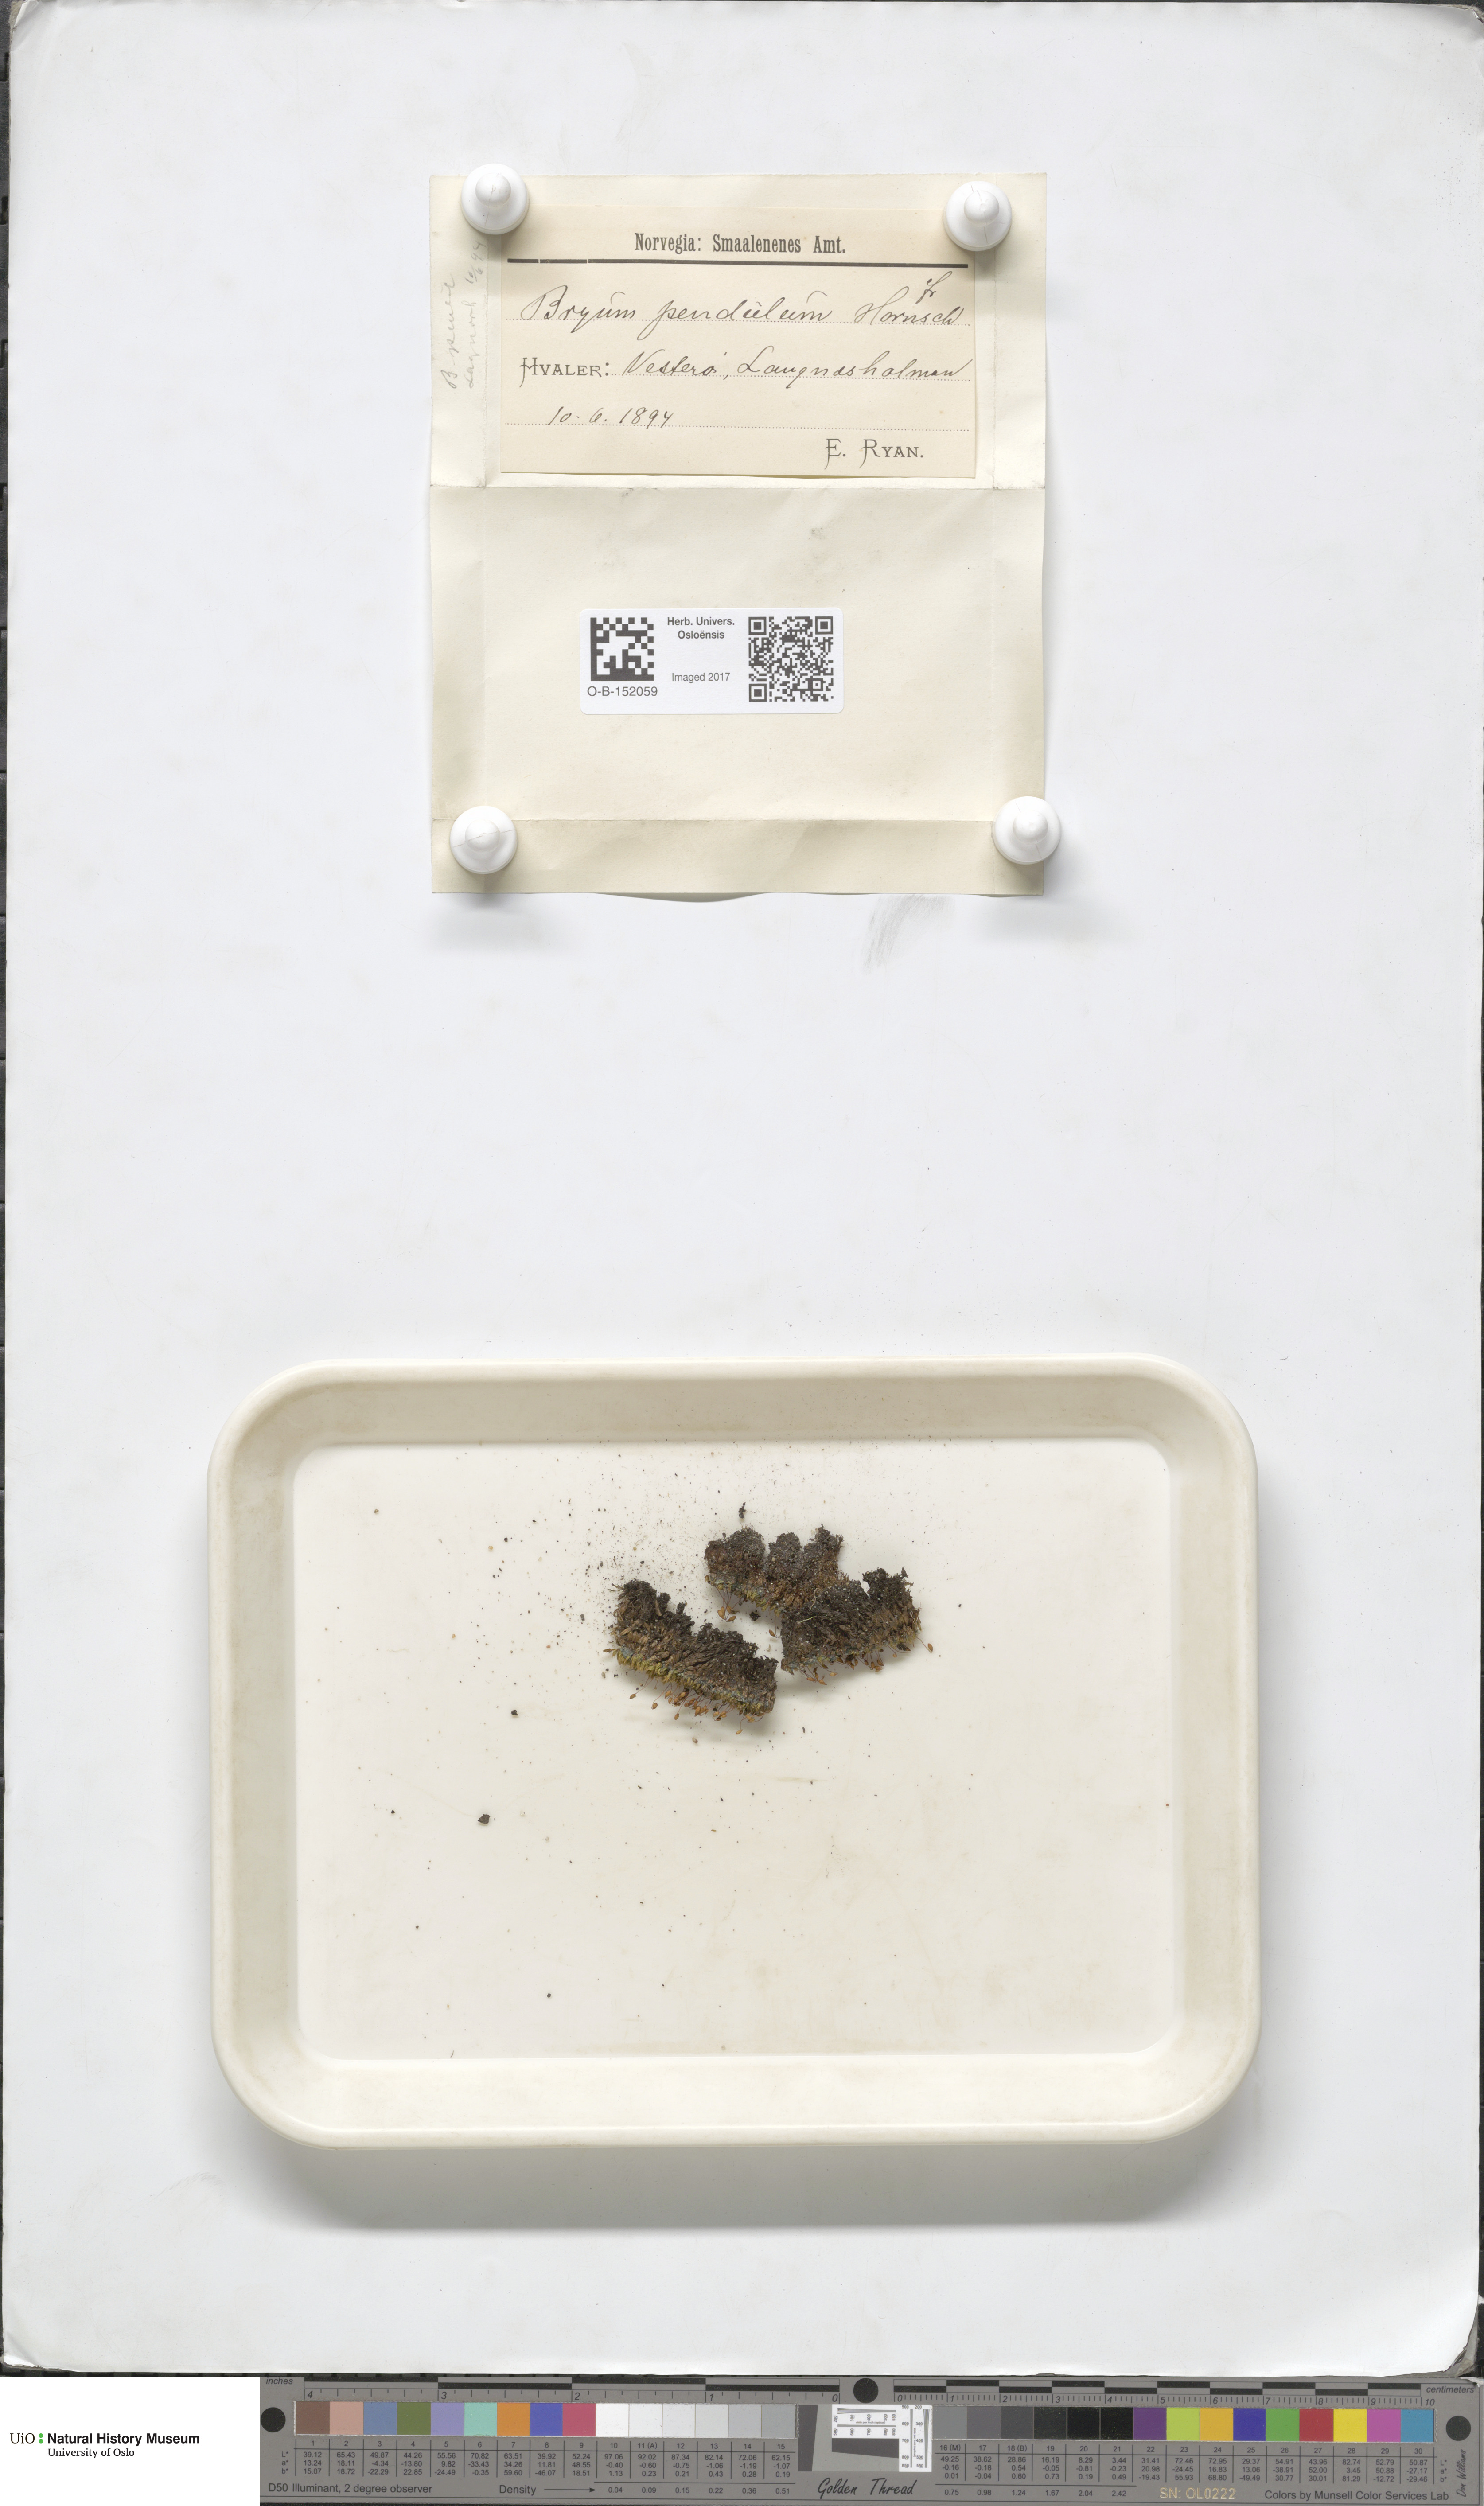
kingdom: Plantae
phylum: Bryophyta
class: Bryopsida
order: Bryales
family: Bryaceae
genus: Ptychostomum
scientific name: Ptychostomum compactum
